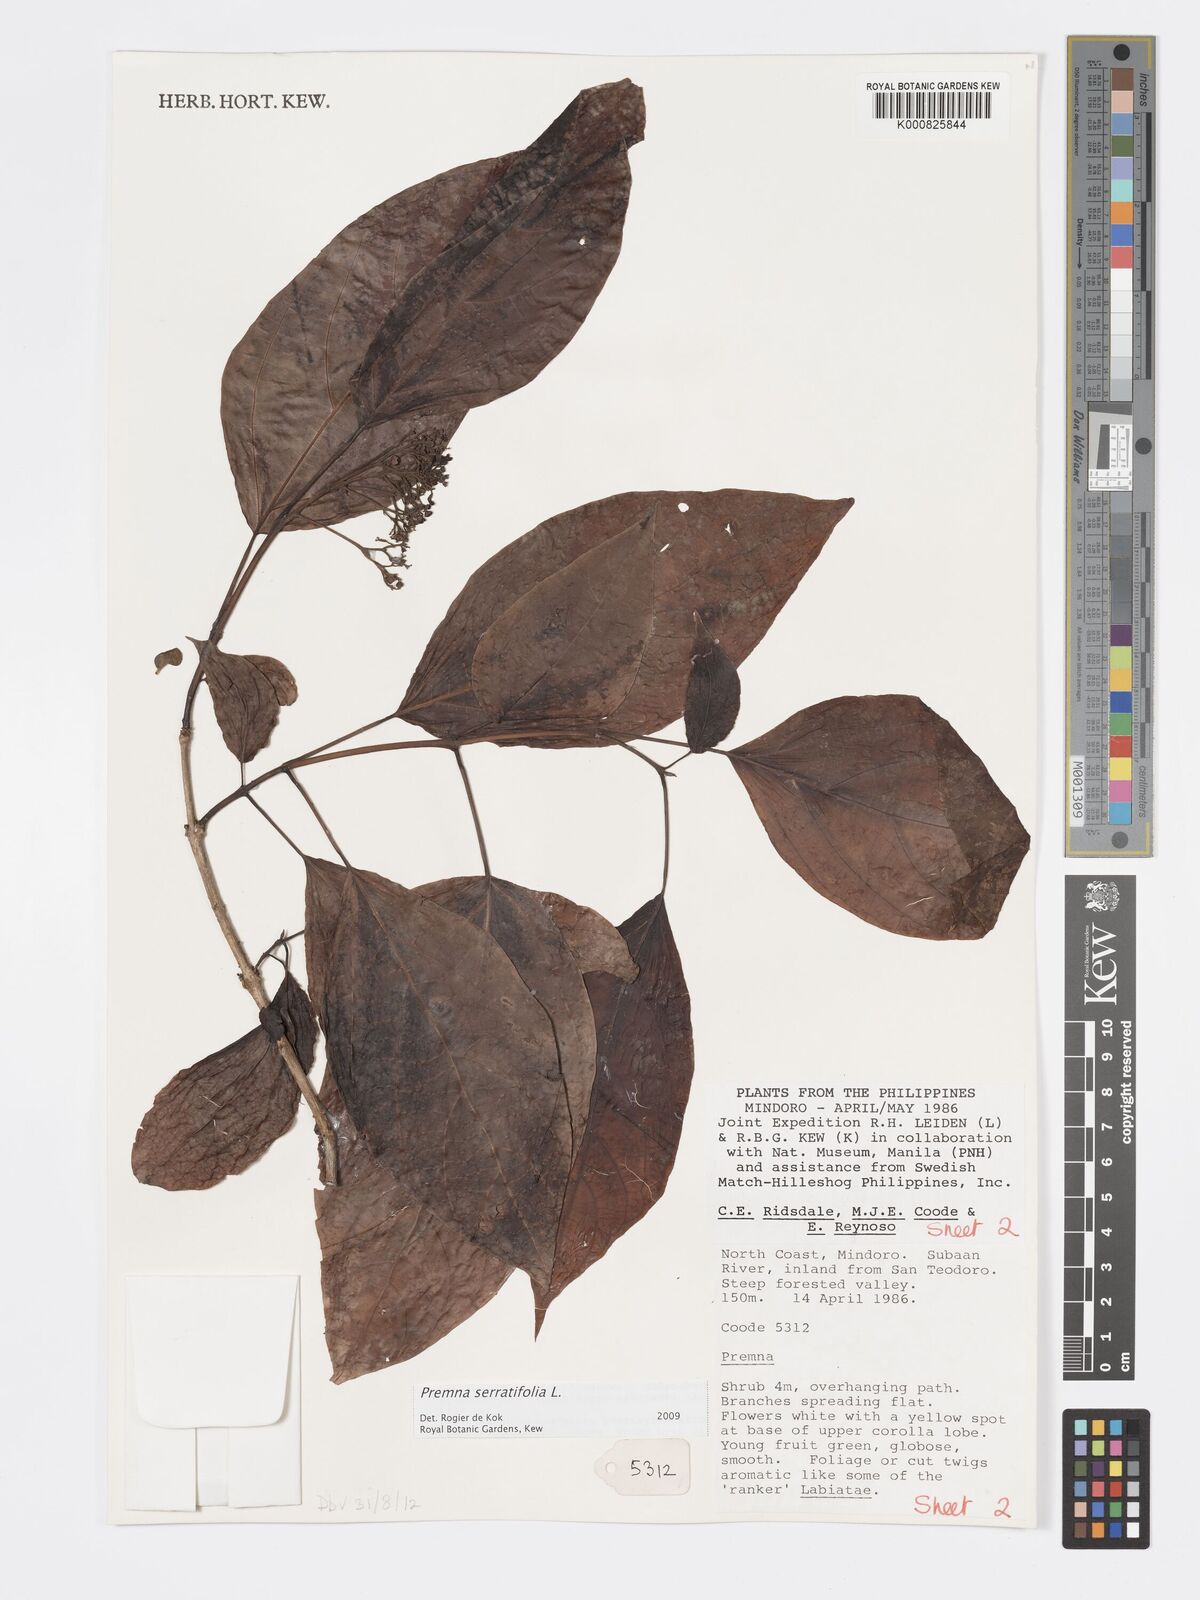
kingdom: Plantae
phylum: Tracheophyta
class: Magnoliopsida
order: Lamiales
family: Lamiaceae
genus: Premna
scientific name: Premna serratifolia
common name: Bastard guelder
